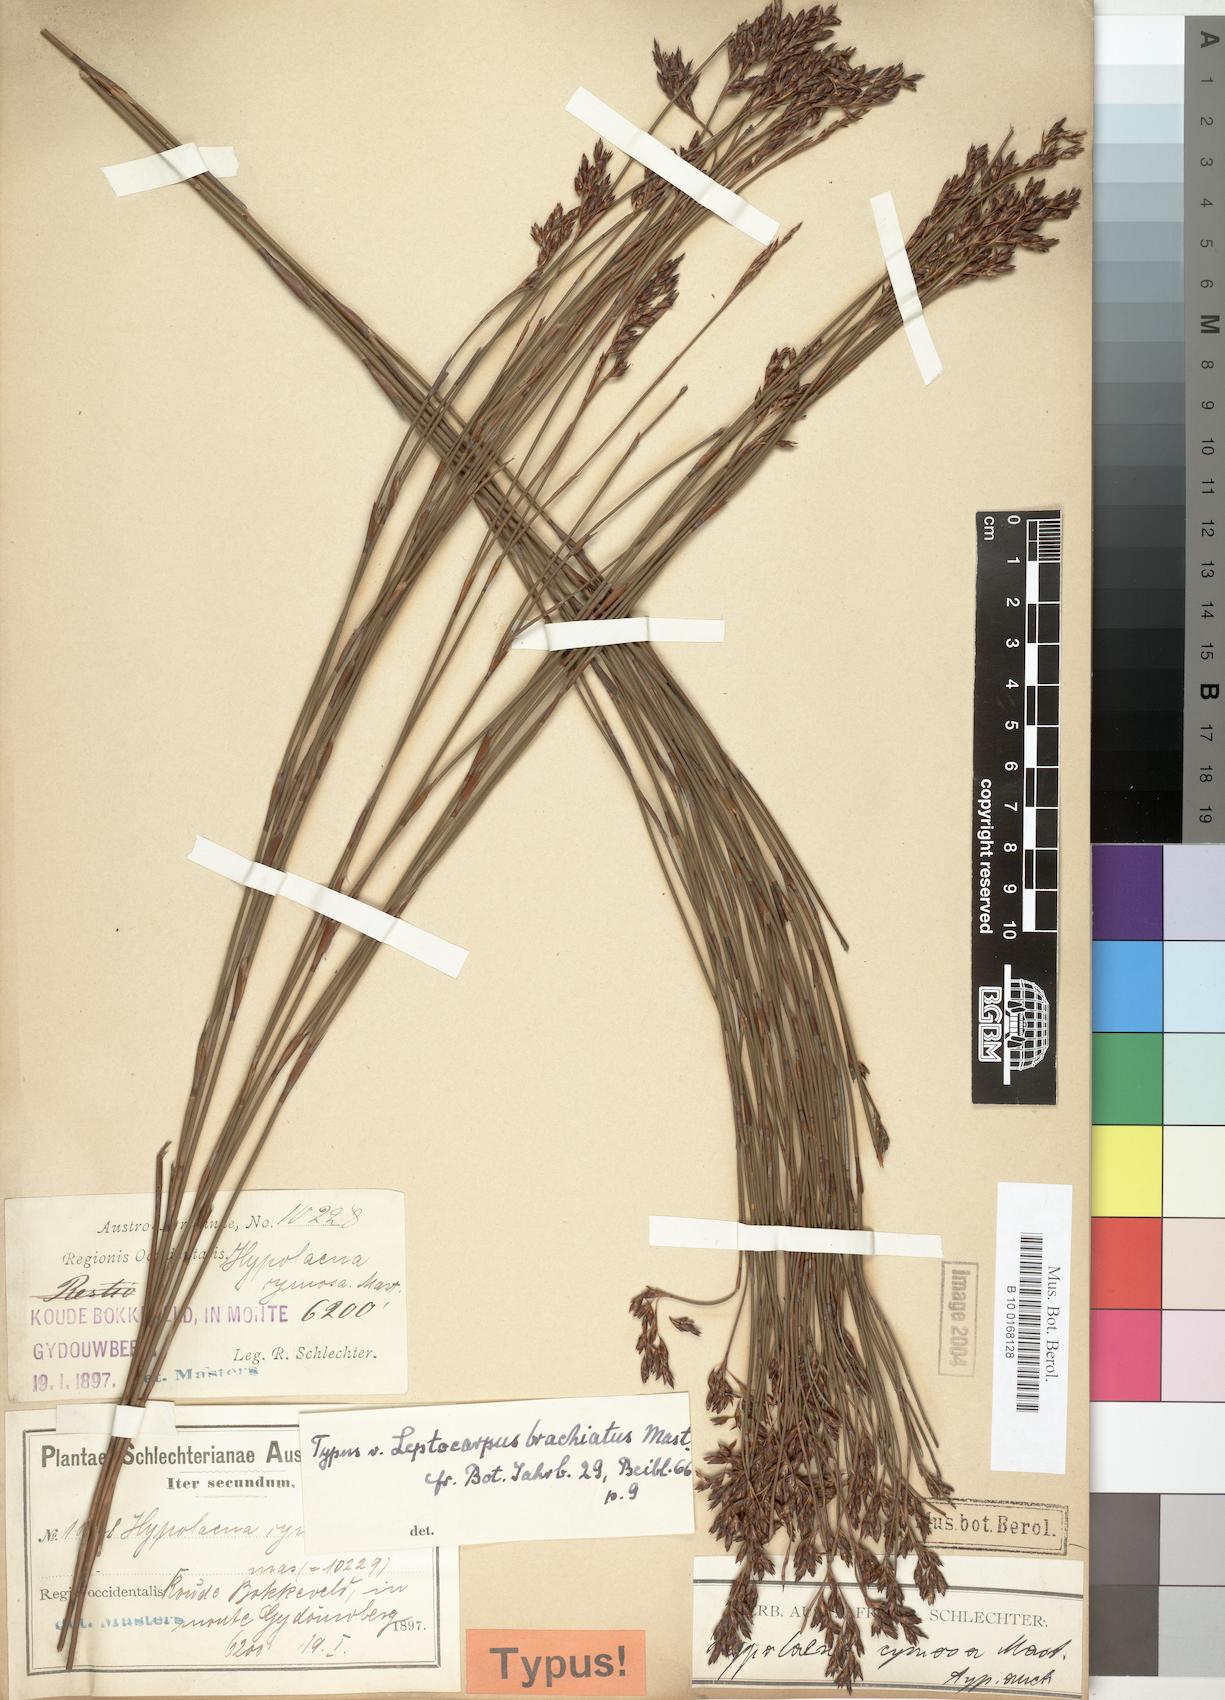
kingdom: Plantae
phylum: Tracheophyta
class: Liliopsida
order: Poales
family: Restionaceae
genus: Restio
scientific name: Restio brachiatus
